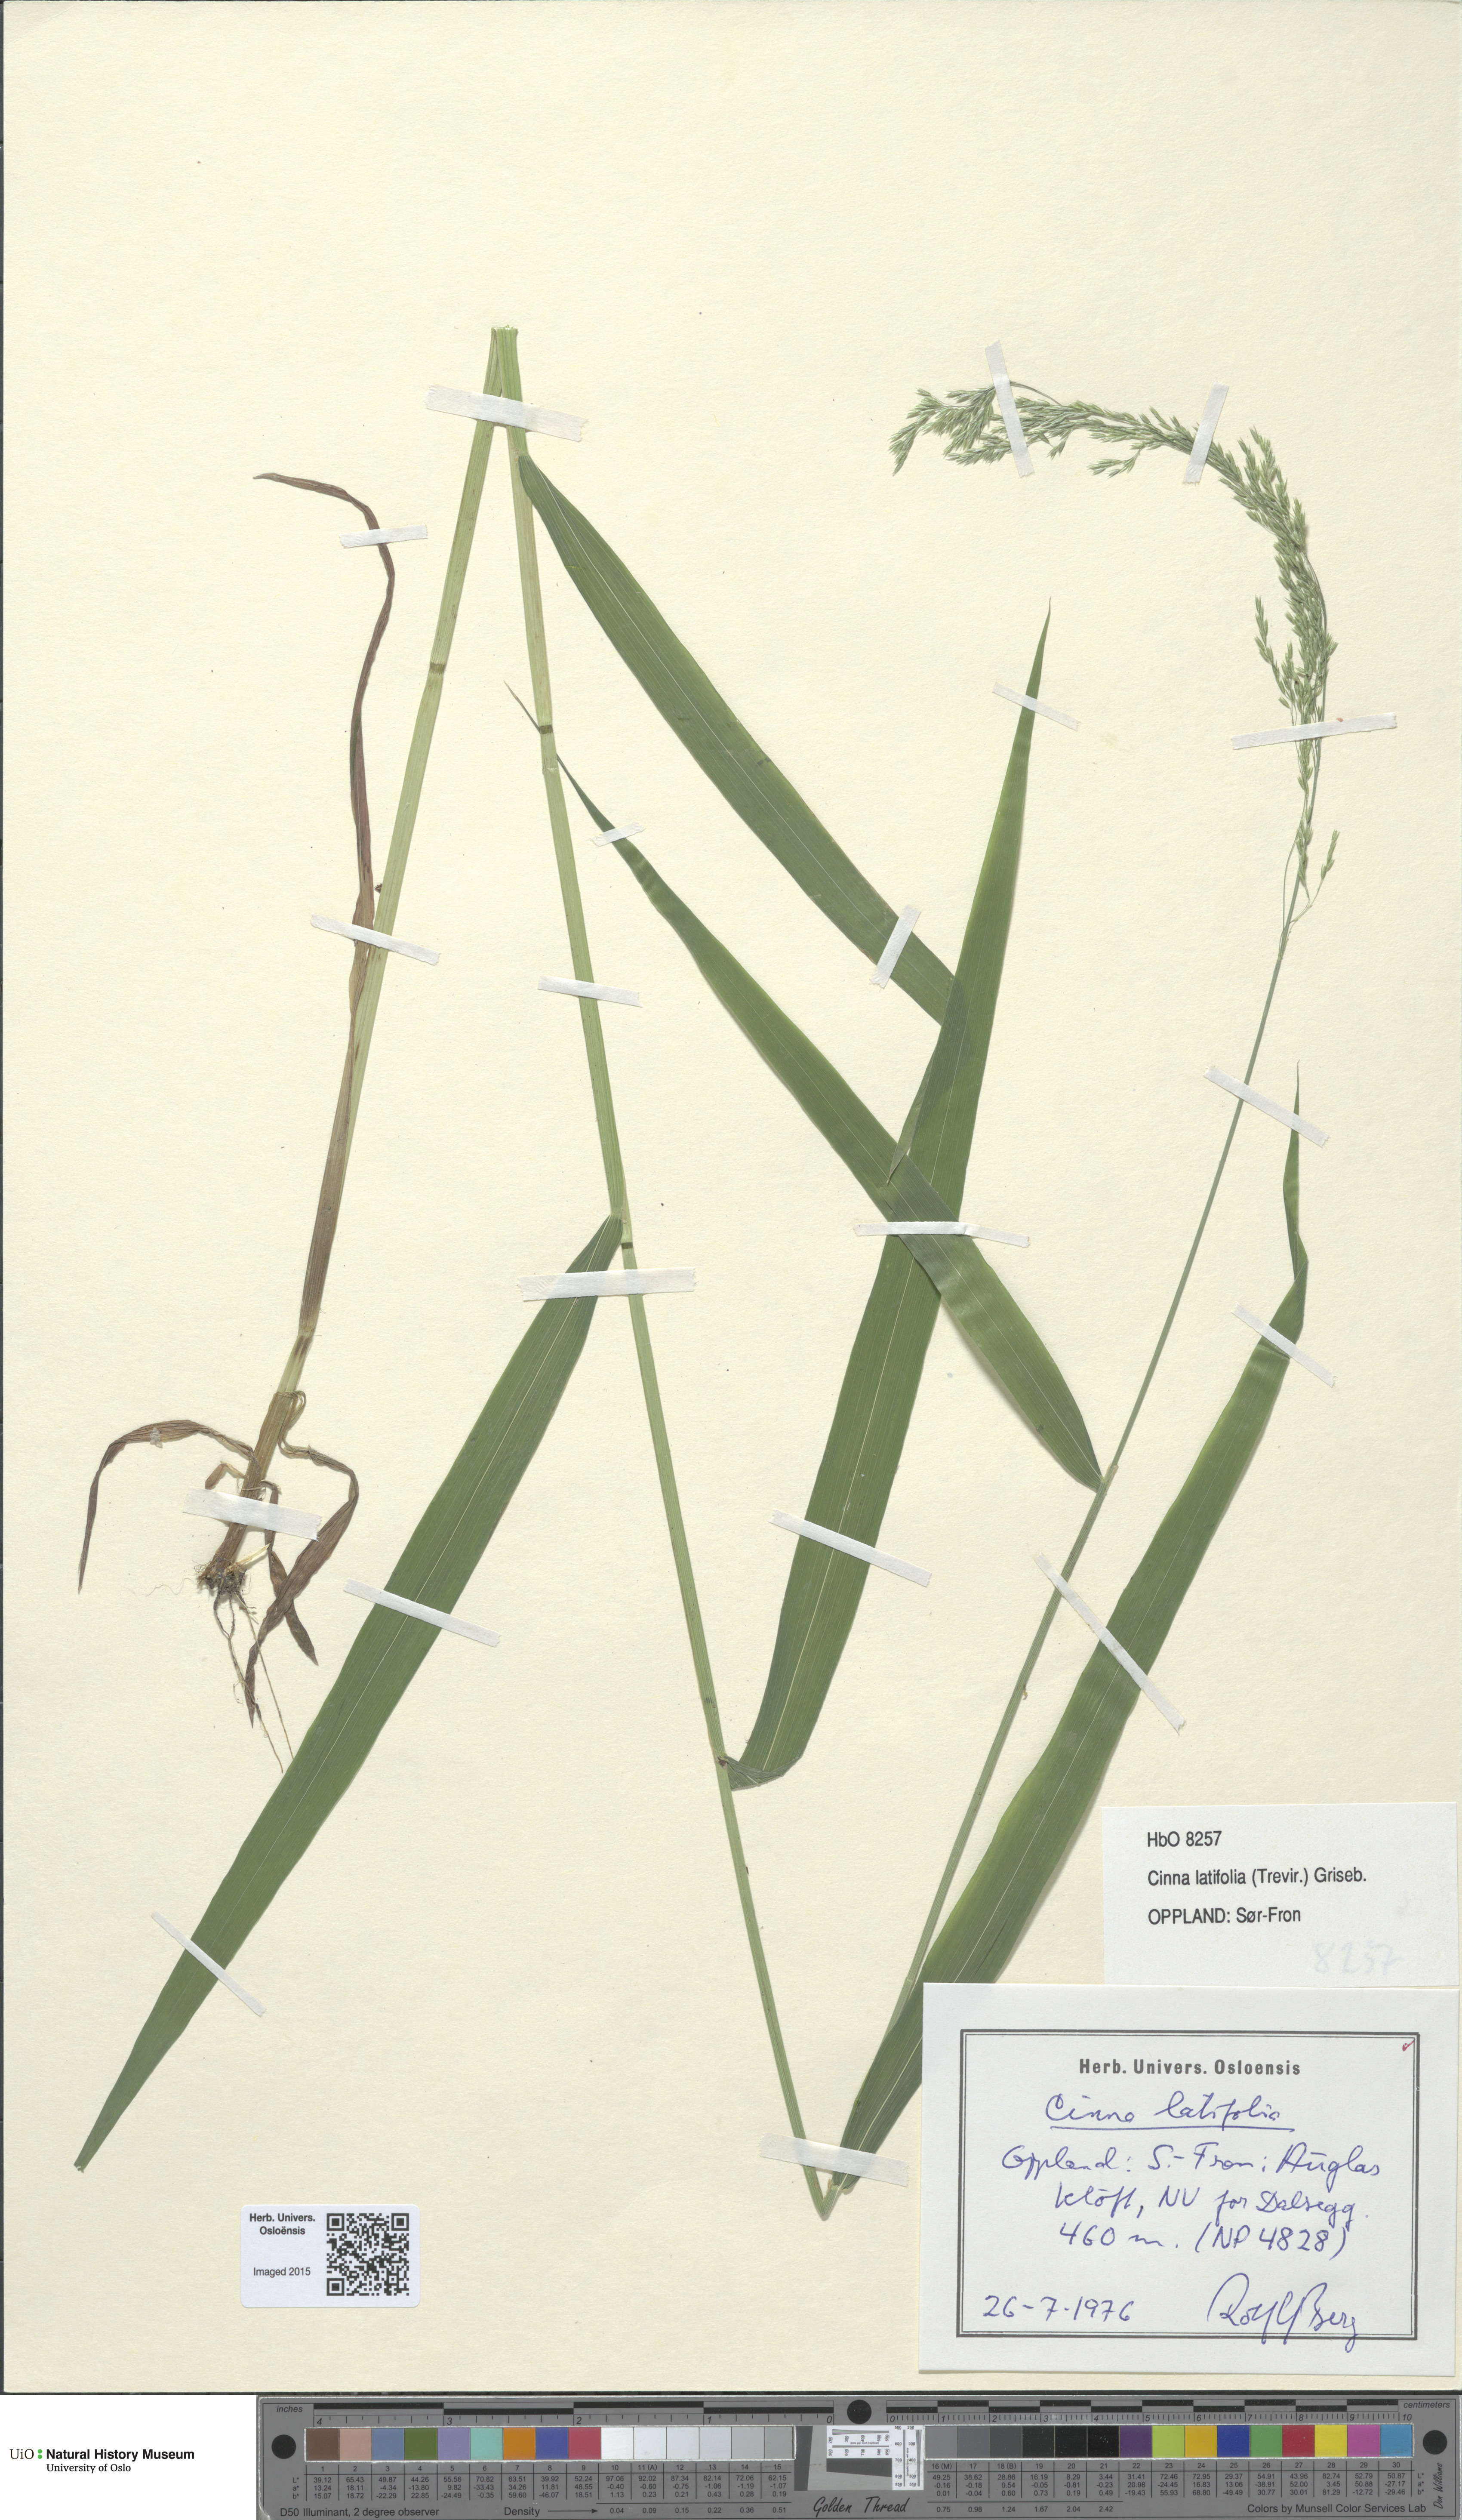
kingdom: Plantae
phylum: Tracheophyta
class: Liliopsida
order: Poales
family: Poaceae
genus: Cinna
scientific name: Cinna latifolia
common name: Drooping woodreed
